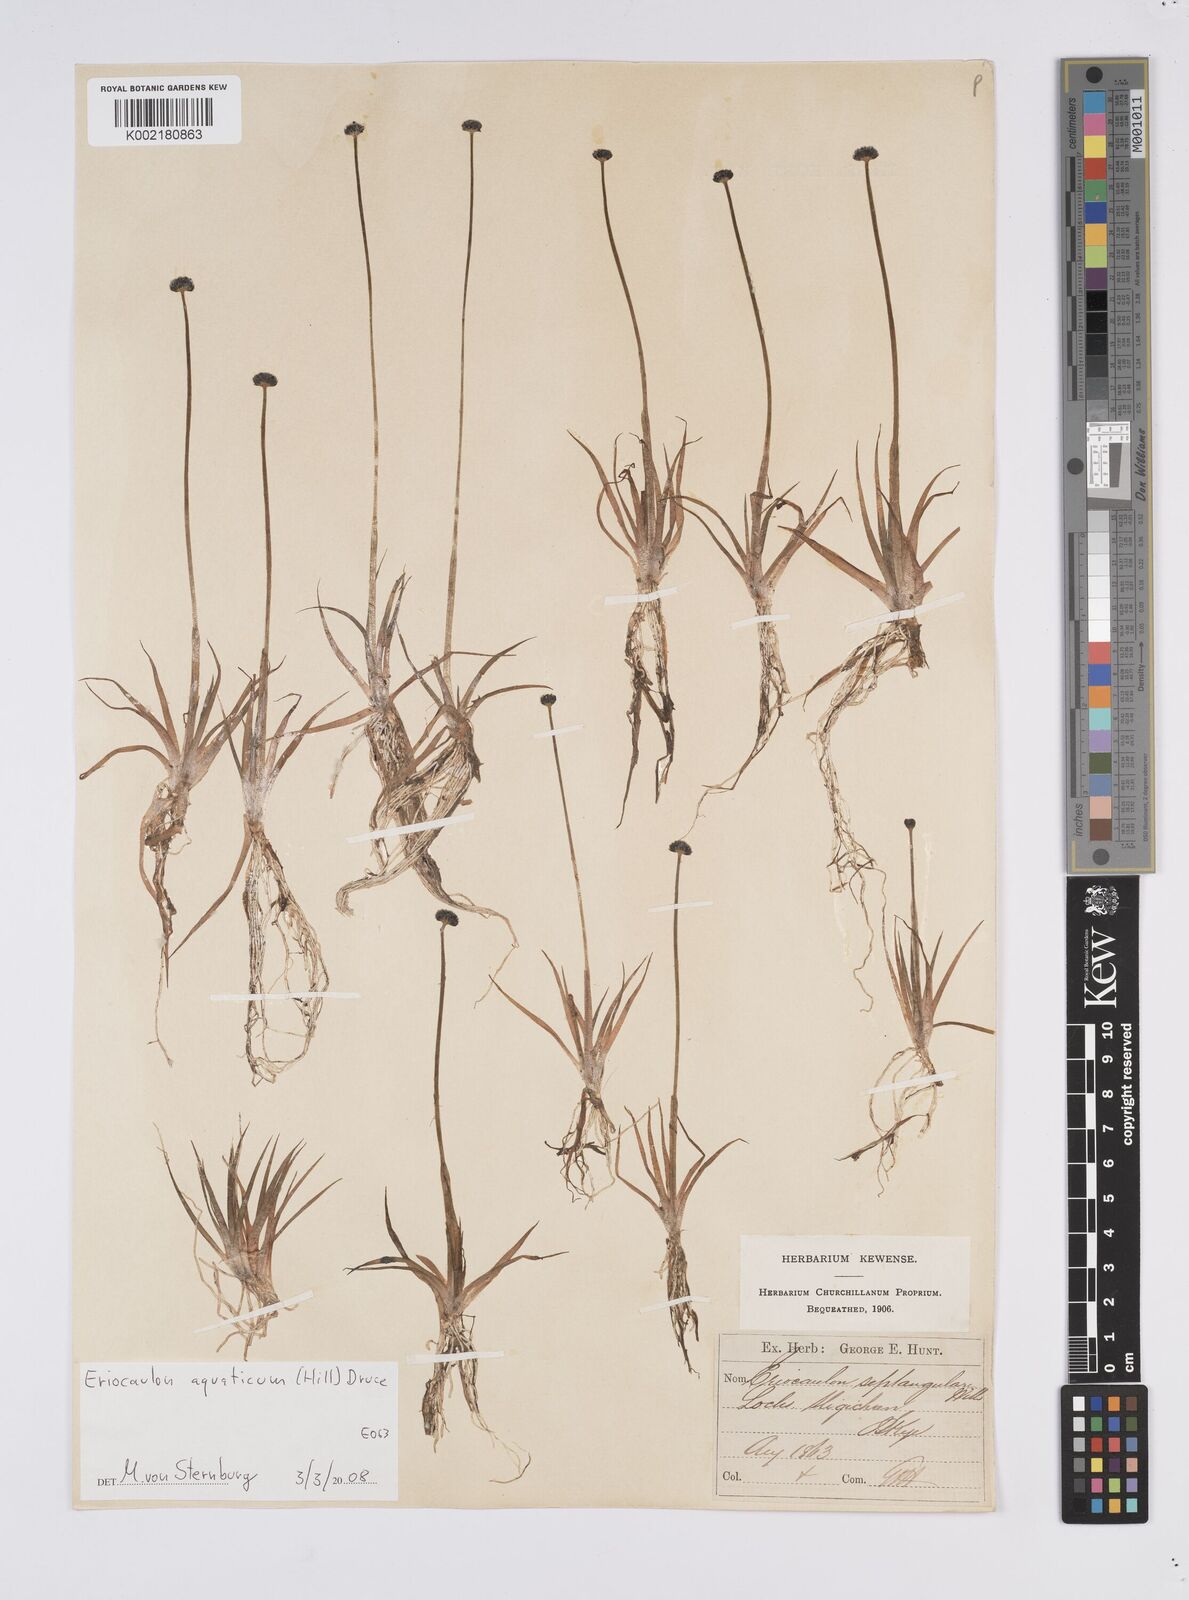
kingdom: Plantae
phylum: Tracheophyta
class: Liliopsida
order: Poales
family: Eriocaulaceae
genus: Eriocaulon
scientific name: Eriocaulon aquaticum
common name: Pipewort
